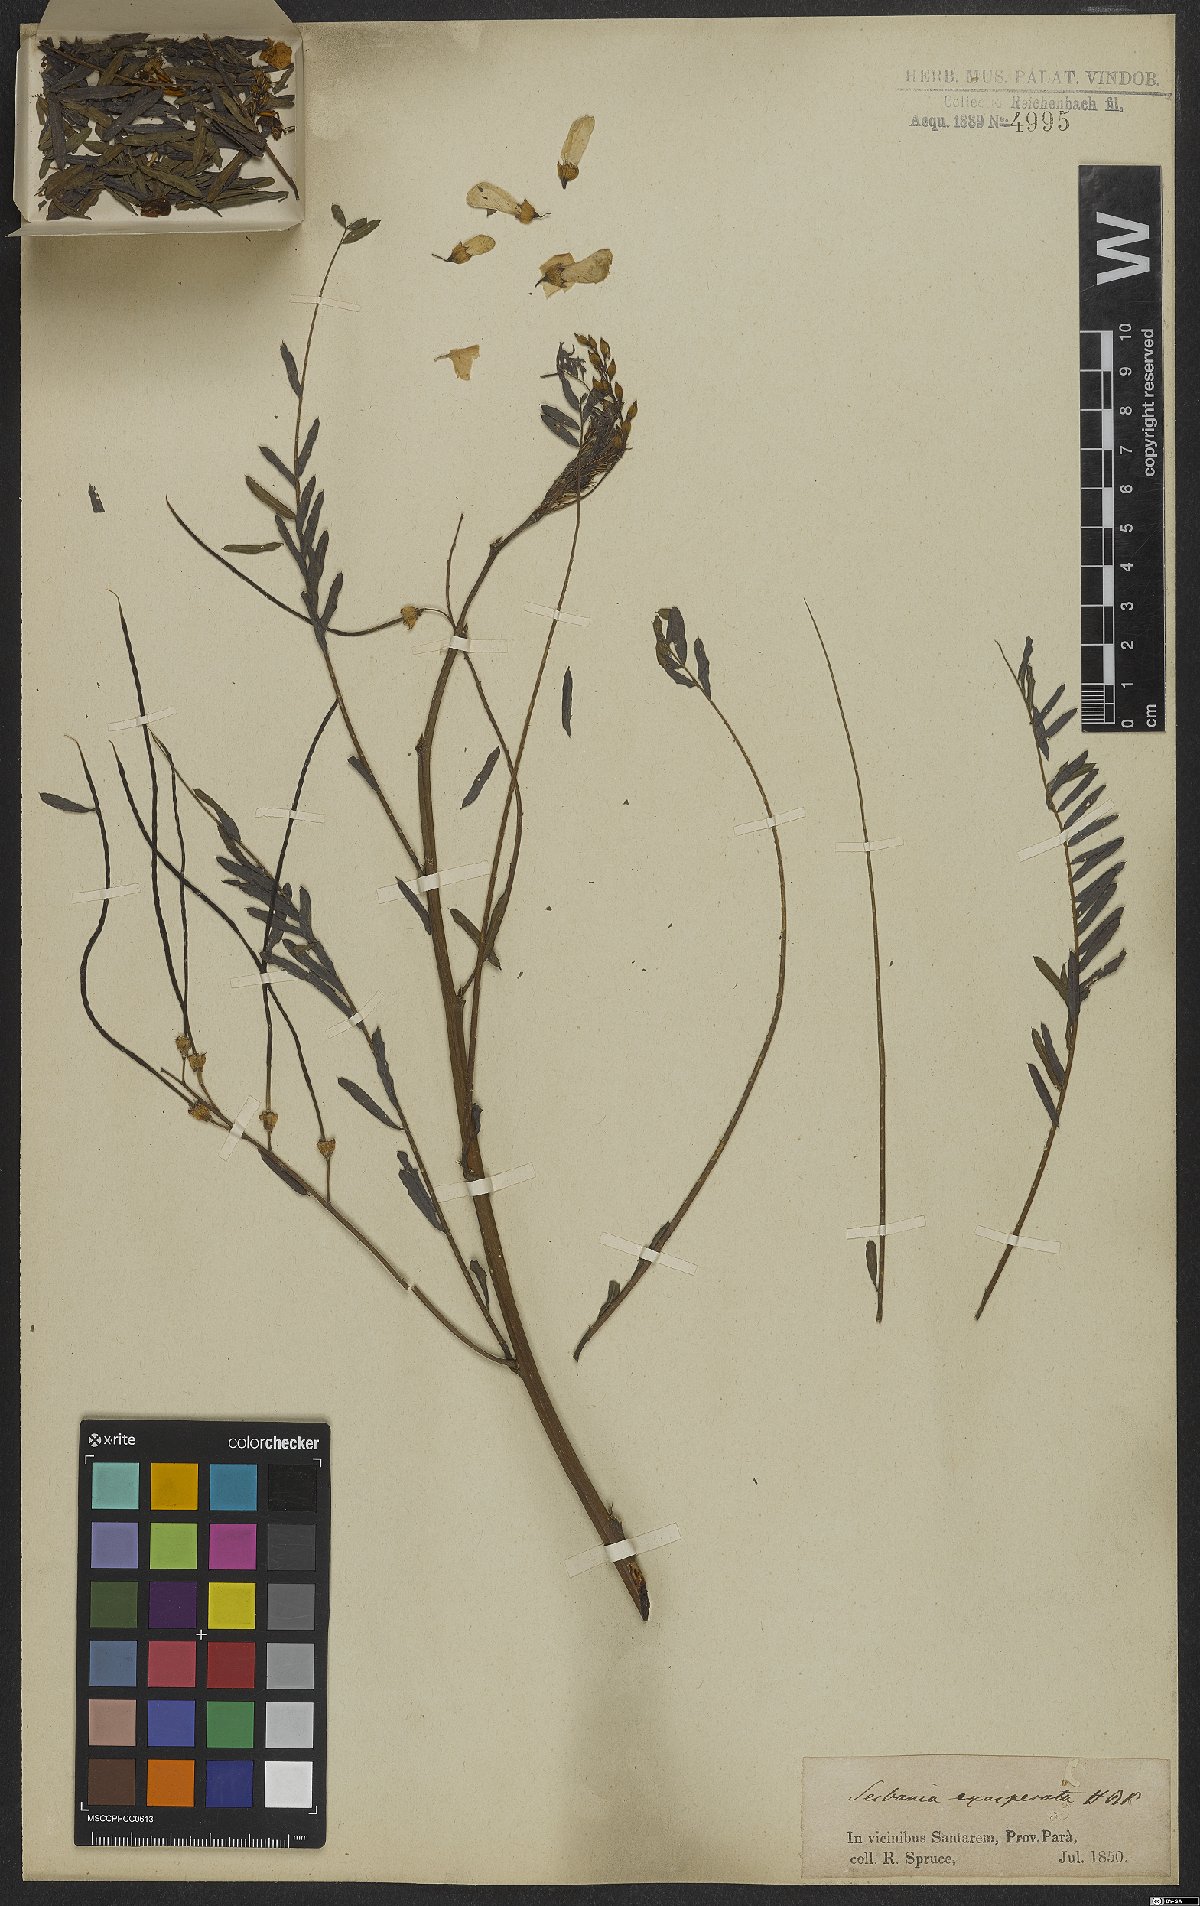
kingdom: Plantae
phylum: Tracheophyta
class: Magnoliopsida
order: Fabales
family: Fabaceae
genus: Sesbania
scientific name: Sesbania exasperata
